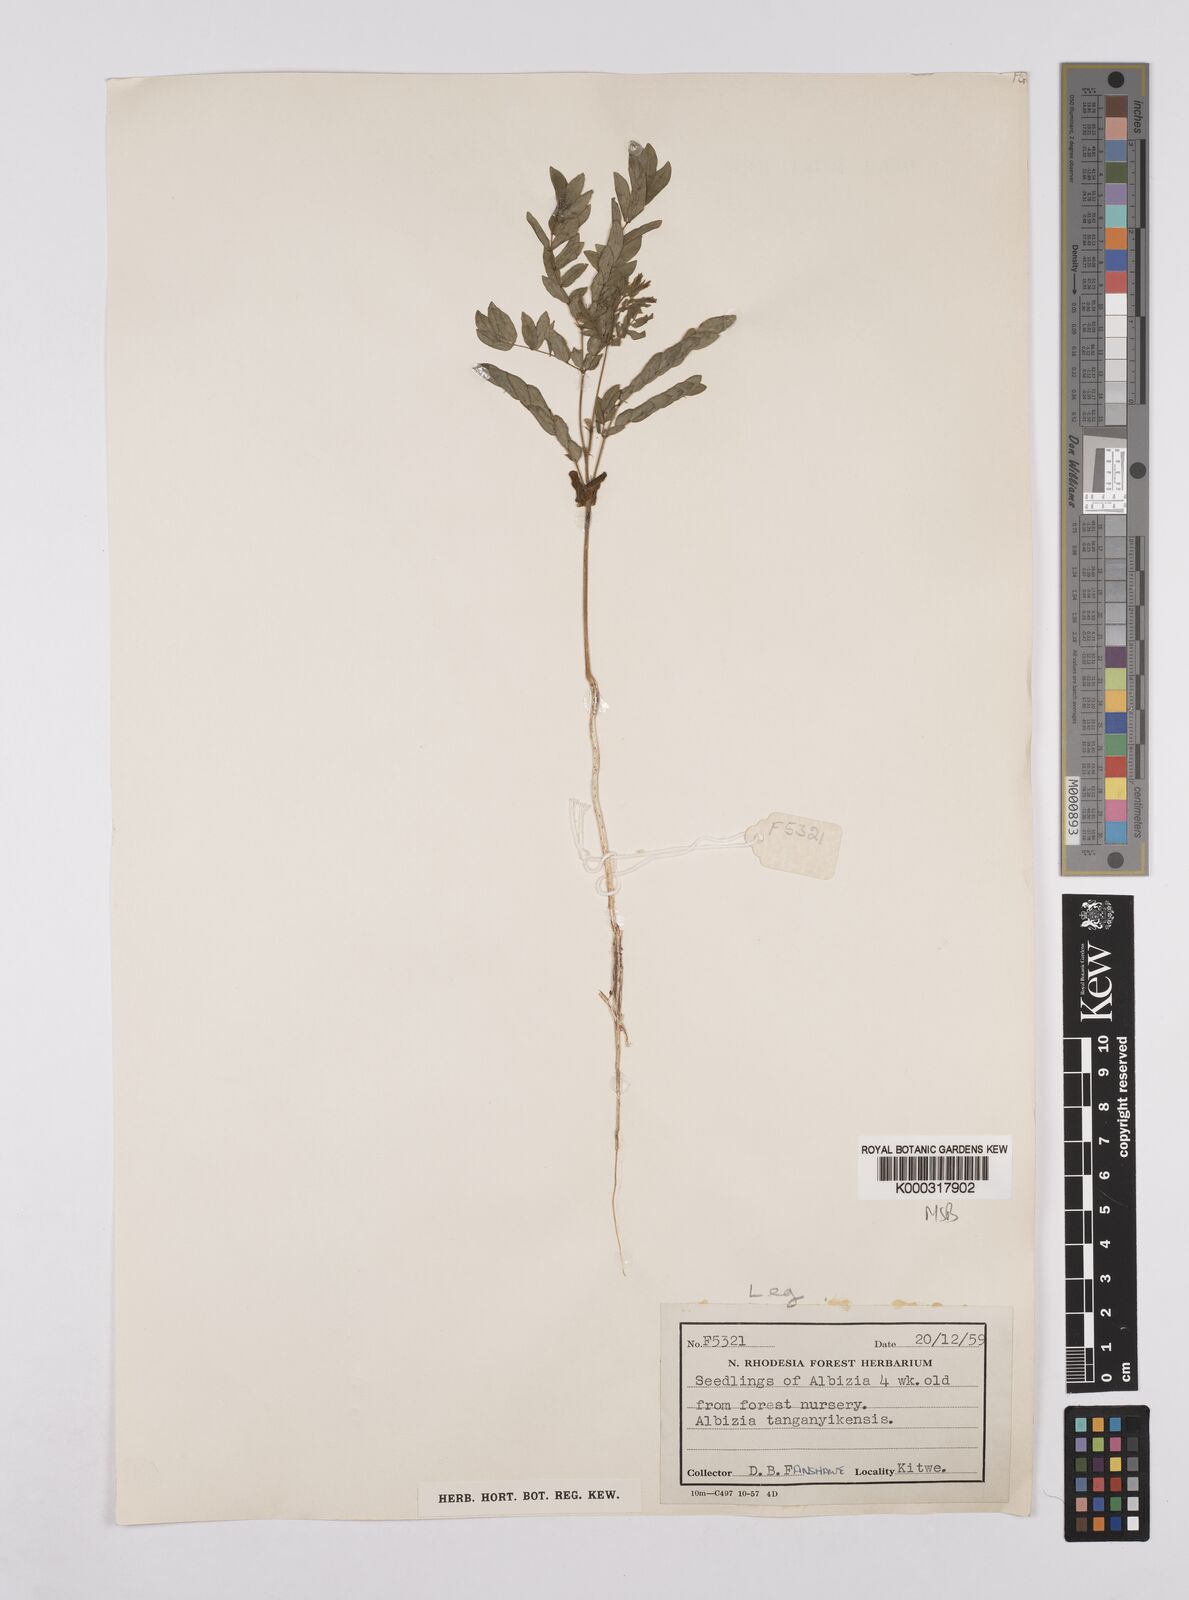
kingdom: Plantae
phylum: Tracheophyta
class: Magnoliopsida
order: Fabales
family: Fabaceae
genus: Albizia
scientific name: Albizia tanganyicensis
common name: Paperbark false thorn
